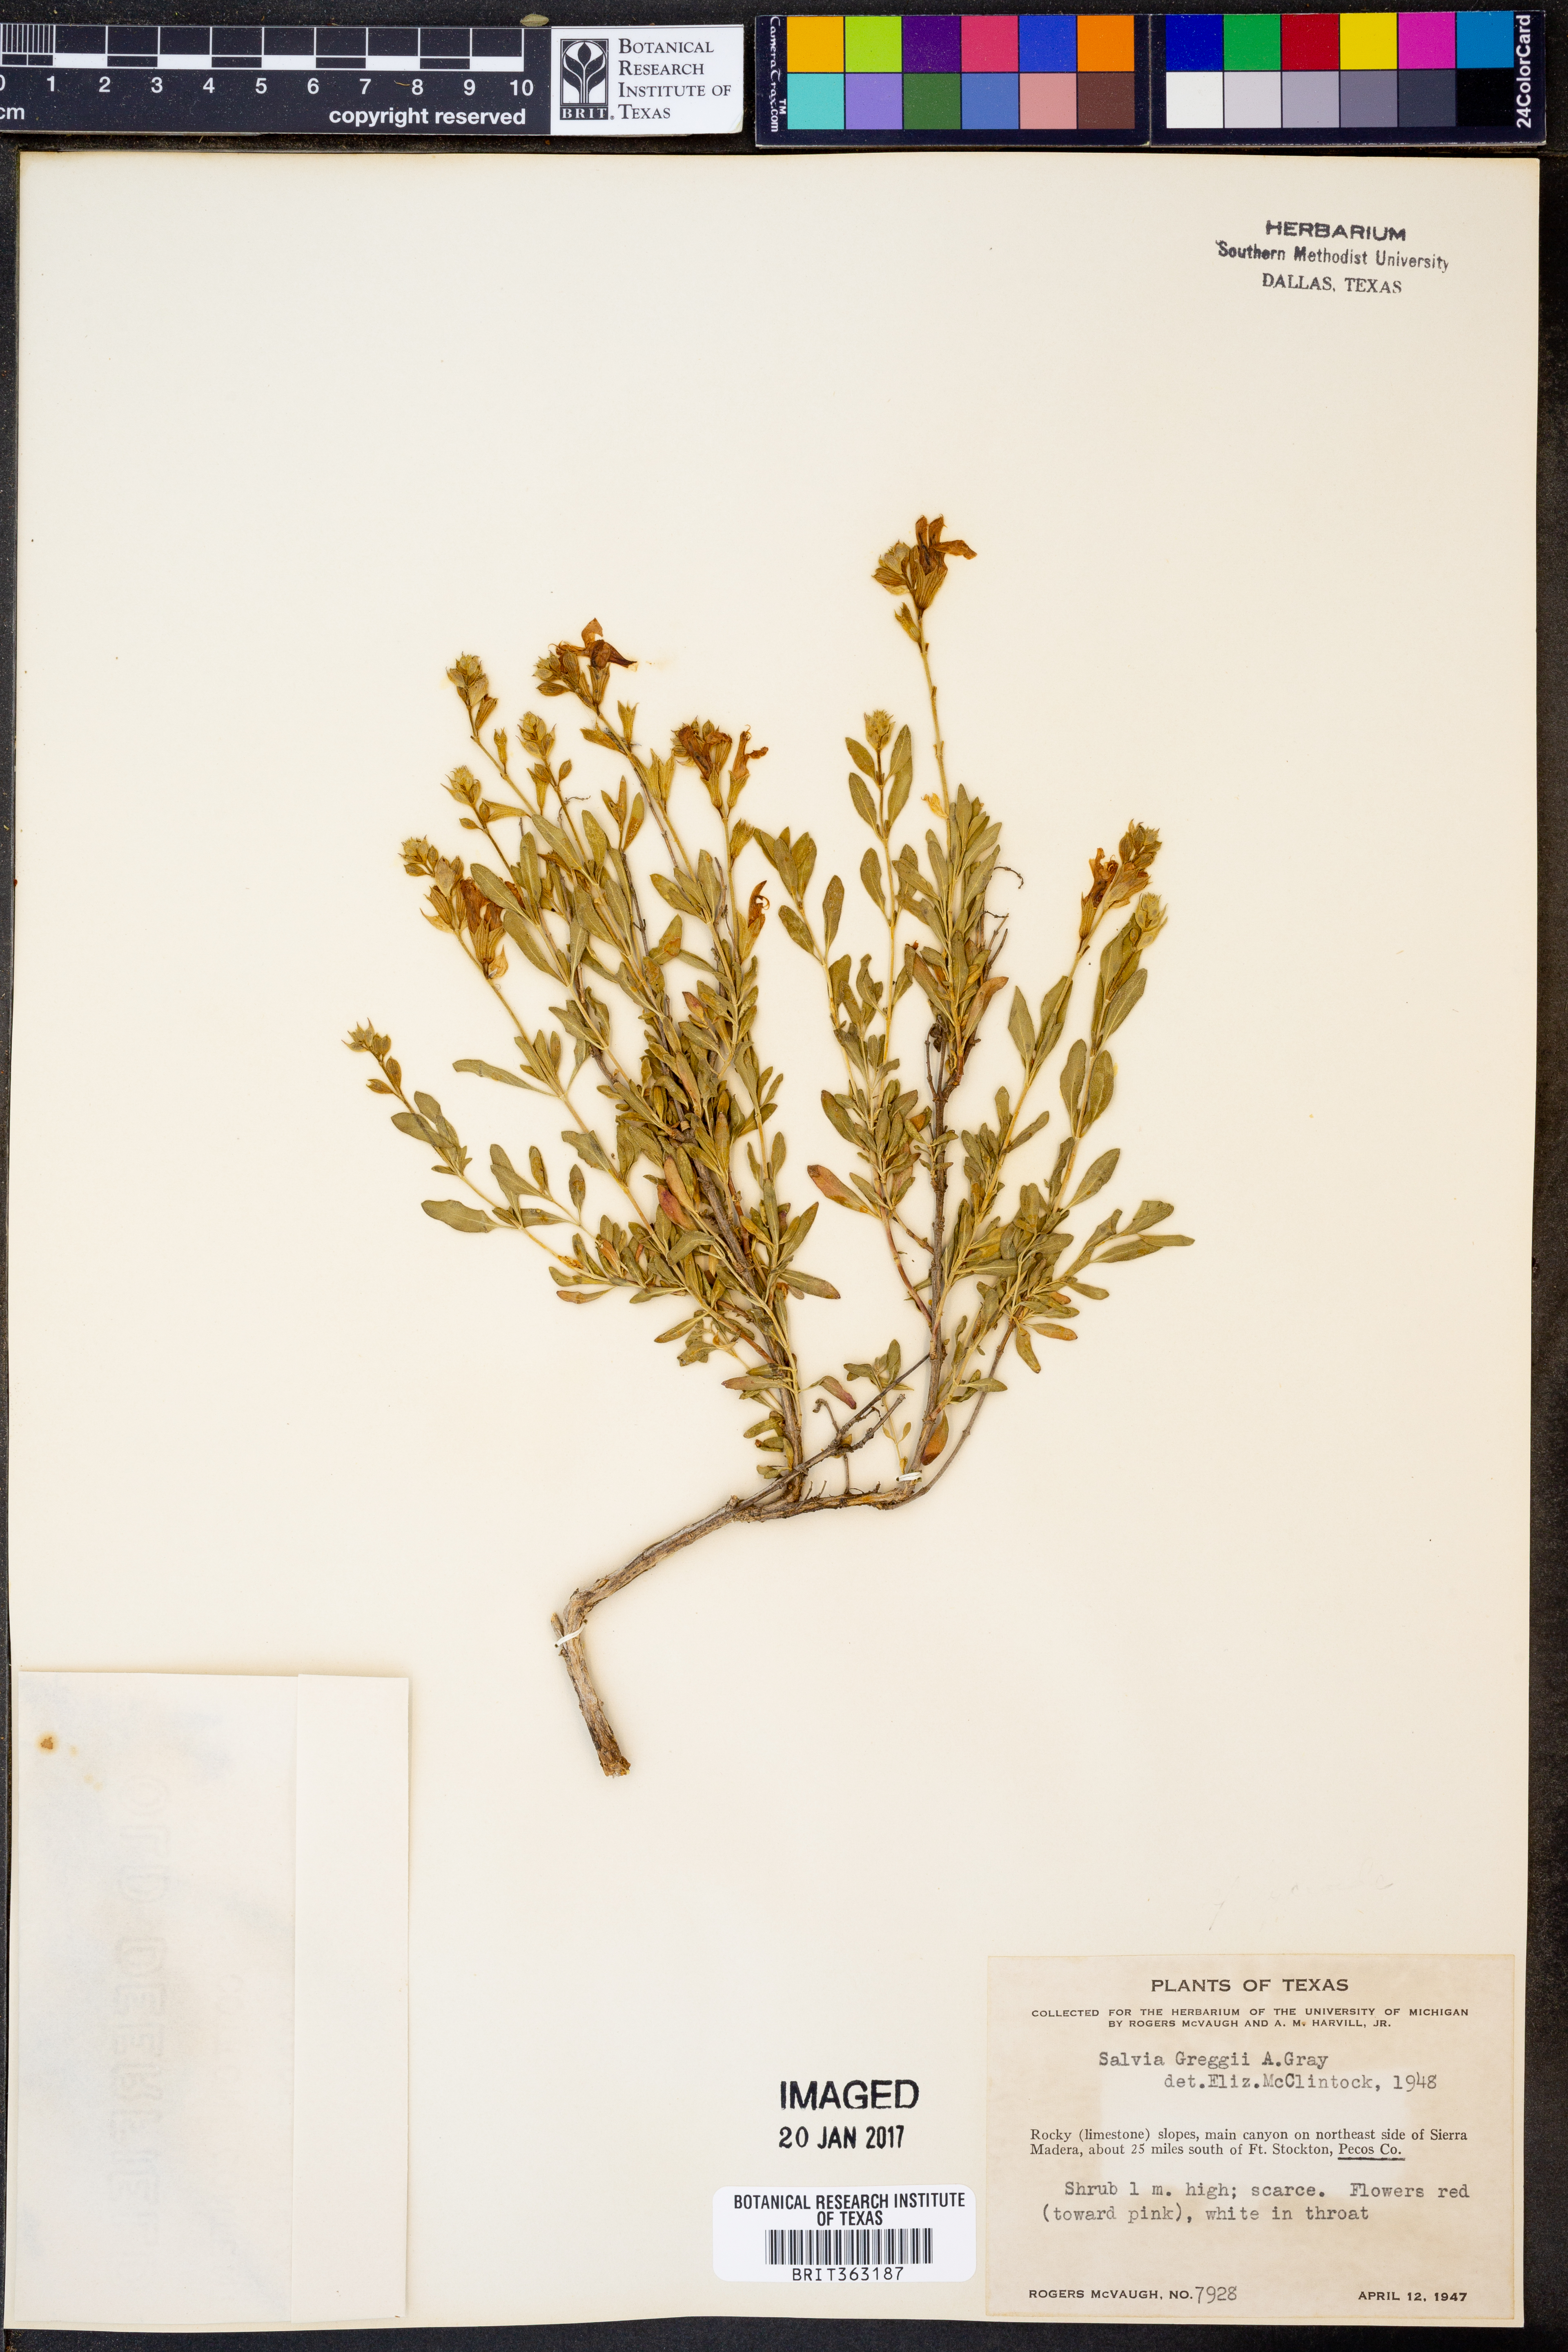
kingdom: Plantae
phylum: Tracheophyta
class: Magnoliopsida
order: Lamiales
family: Lamiaceae
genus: Salvia
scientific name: Salvia greggii
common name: Autumn sage
